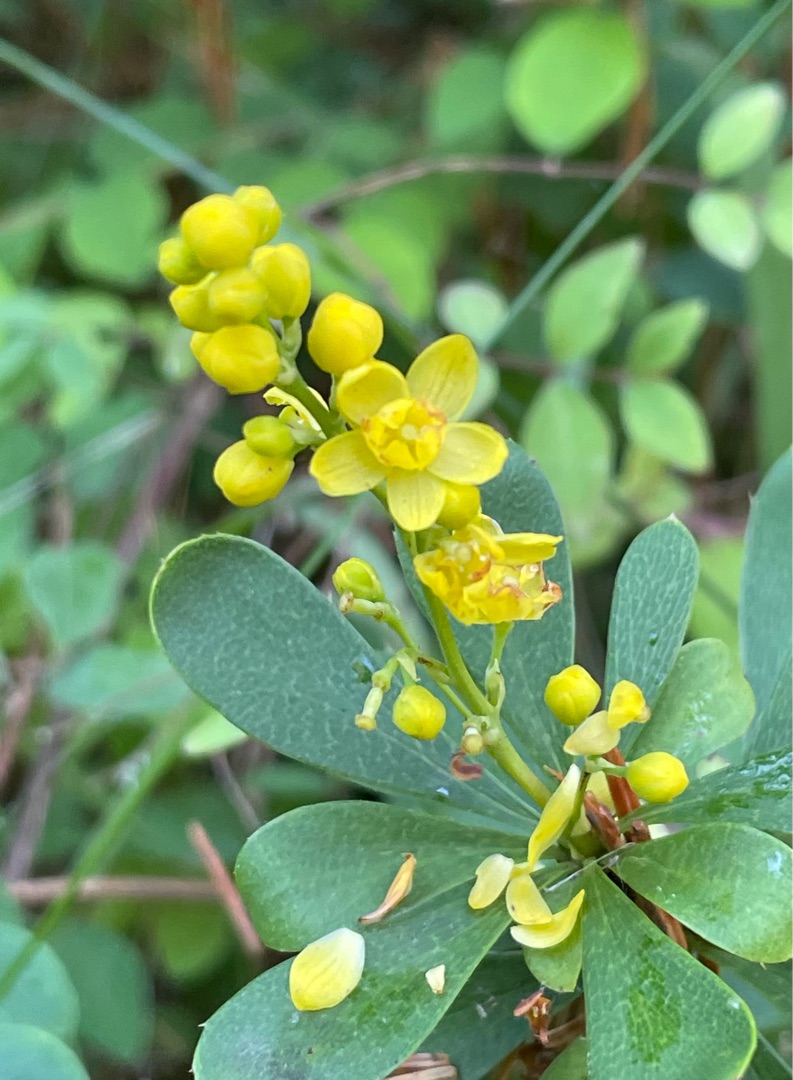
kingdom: Plantae
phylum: Tracheophyta
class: Magnoliopsida
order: Ranunculales
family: Berberidaceae
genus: Berberis
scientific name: Berberis aggregata
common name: Tætfrugtet berberis
